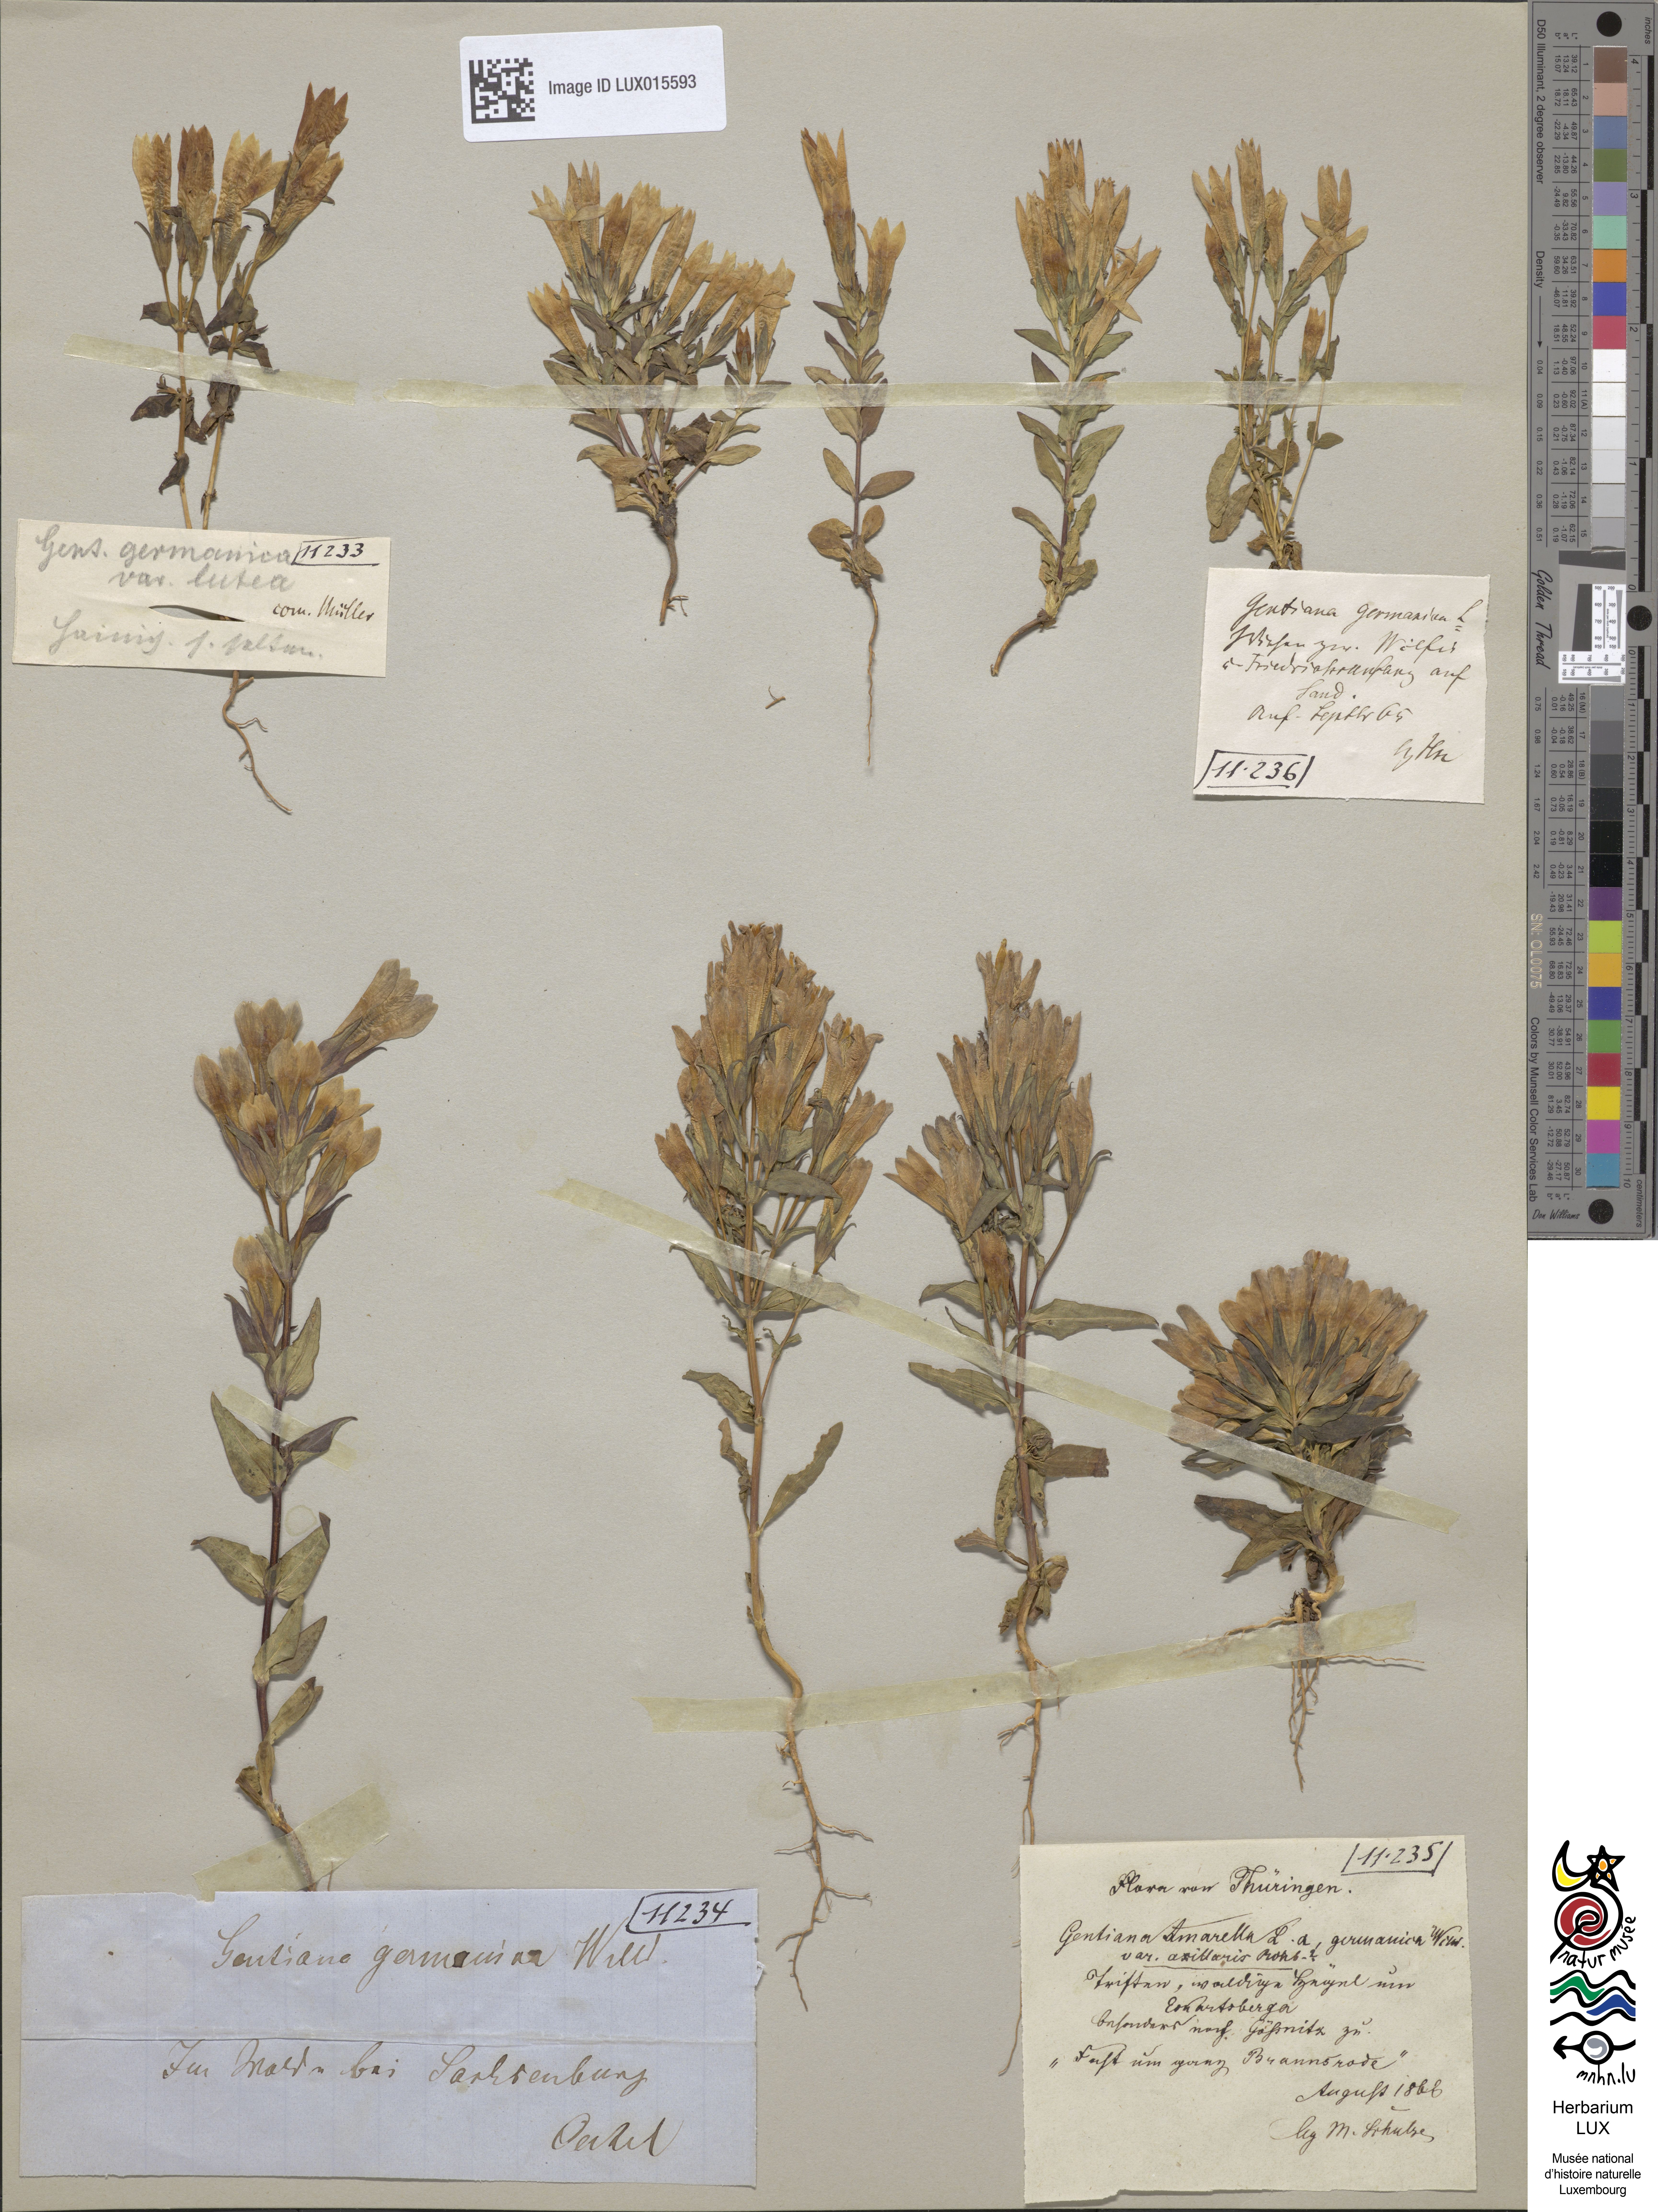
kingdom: Plantae
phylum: Tracheophyta
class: Magnoliopsida
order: Gentianales
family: Gentianaceae
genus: Gentianella
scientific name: Gentianella
